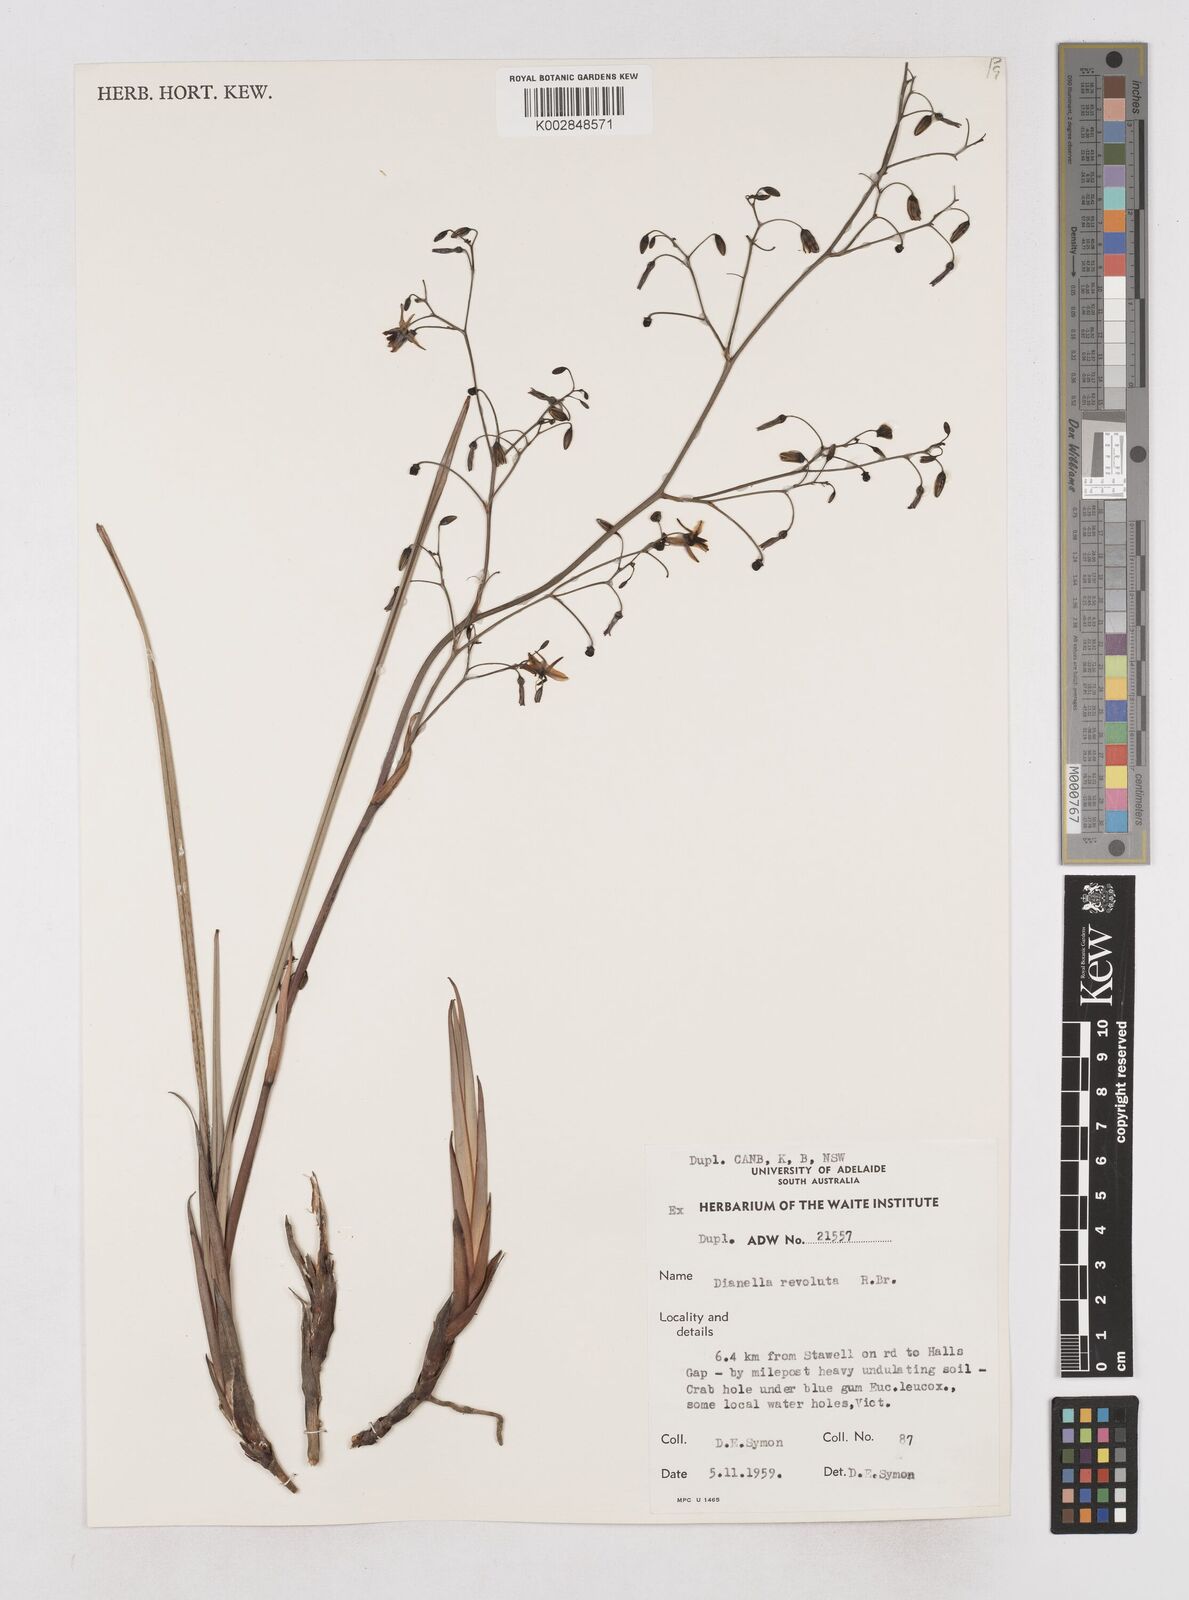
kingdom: Plantae
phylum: Tracheophyta
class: Liliopsida
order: Asparagales
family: Asphodelaceae
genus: Dianella
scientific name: Dianella revoluta
